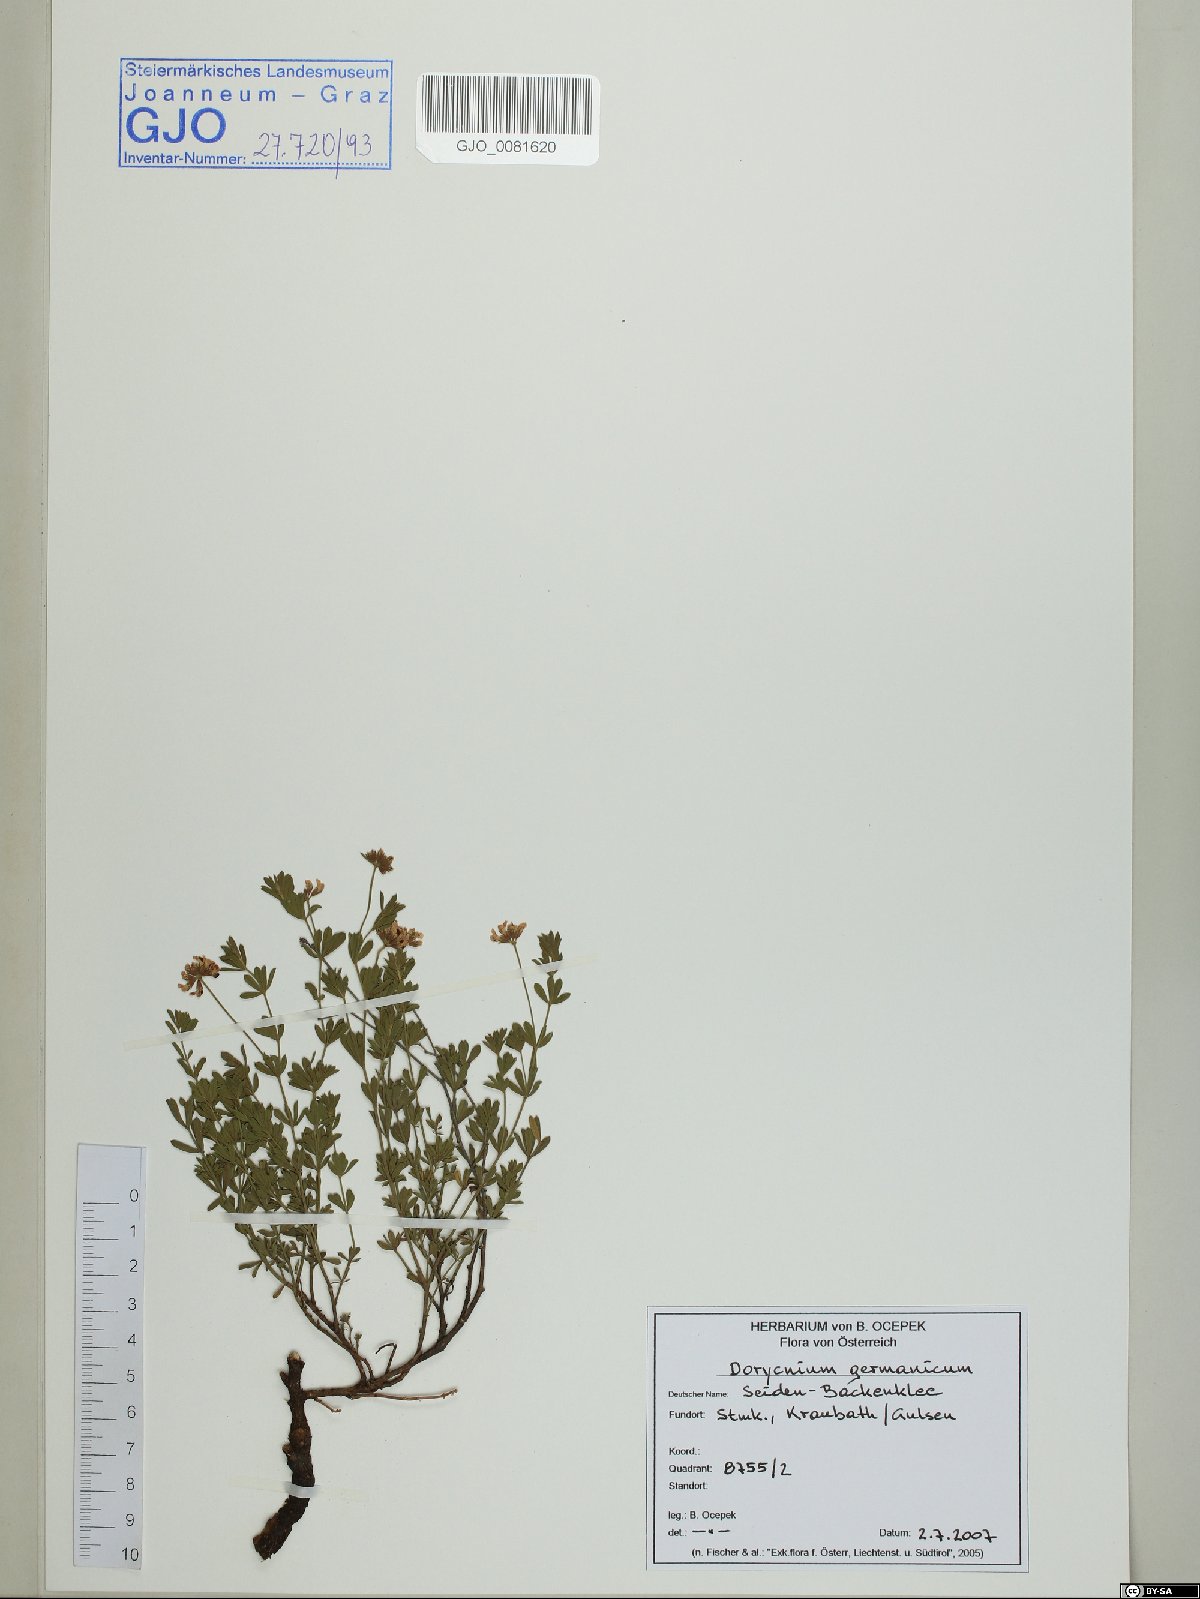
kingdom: Plantae
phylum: Tracheophyta
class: Magnoliopsida
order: Fabales
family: Fabaceae
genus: Lotus
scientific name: Lotus germanicus
